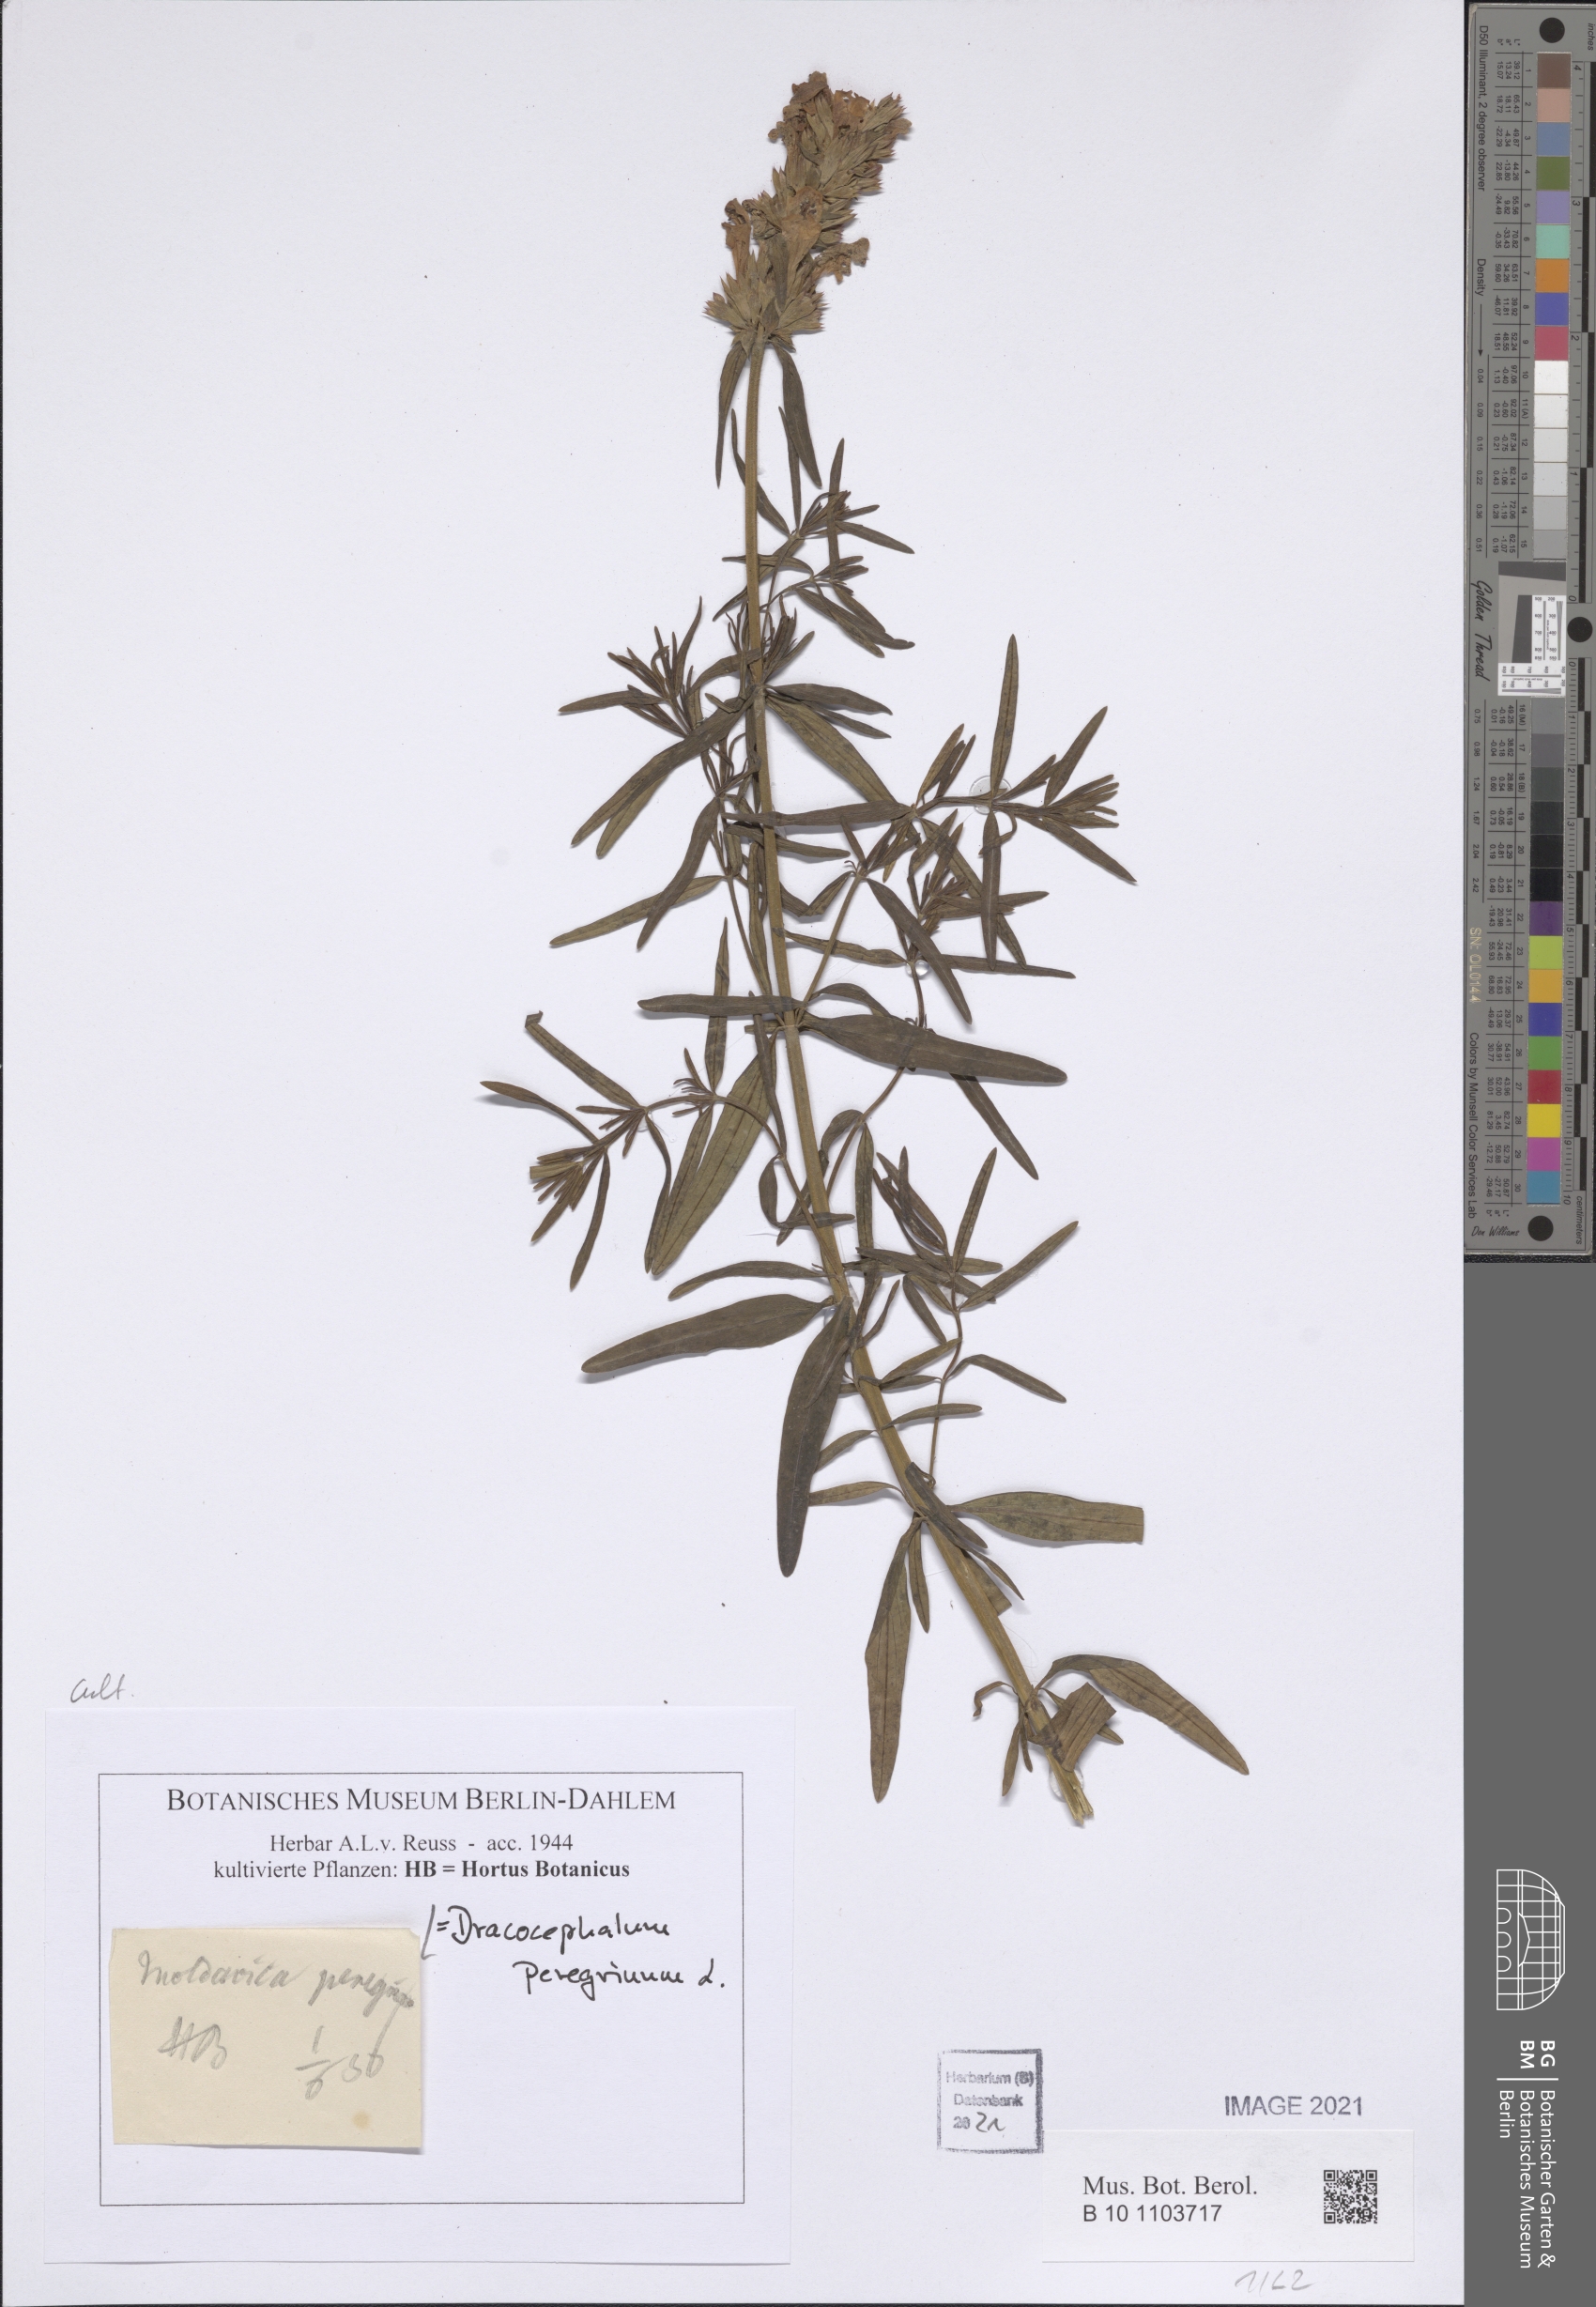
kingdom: Plantae
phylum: Tracheophyta
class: Magnoliopsida
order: Lamiales
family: Lamiaceae
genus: Dracocephalum
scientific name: Dracocephalum peregrinum
